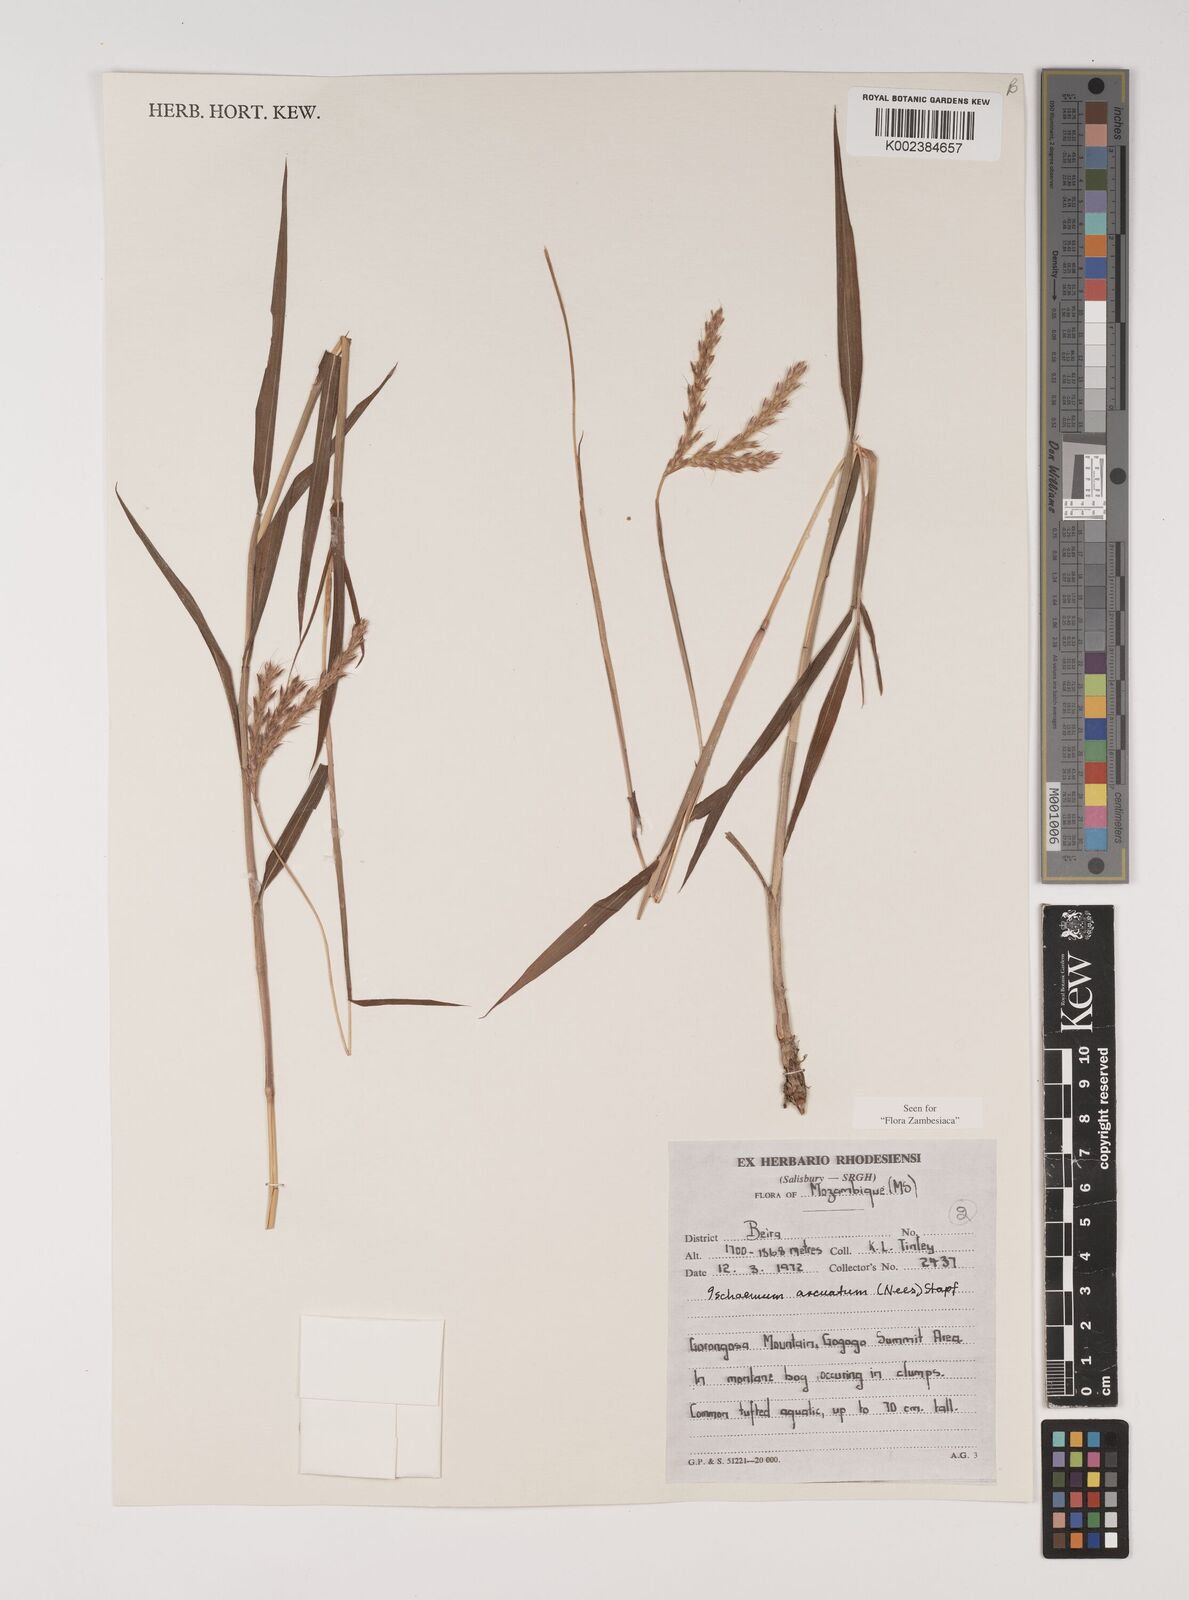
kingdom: Plantae
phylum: Tracheophyta
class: Liliopsida
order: Poales
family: Poaceae
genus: Ischaemum
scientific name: Ischaemum
